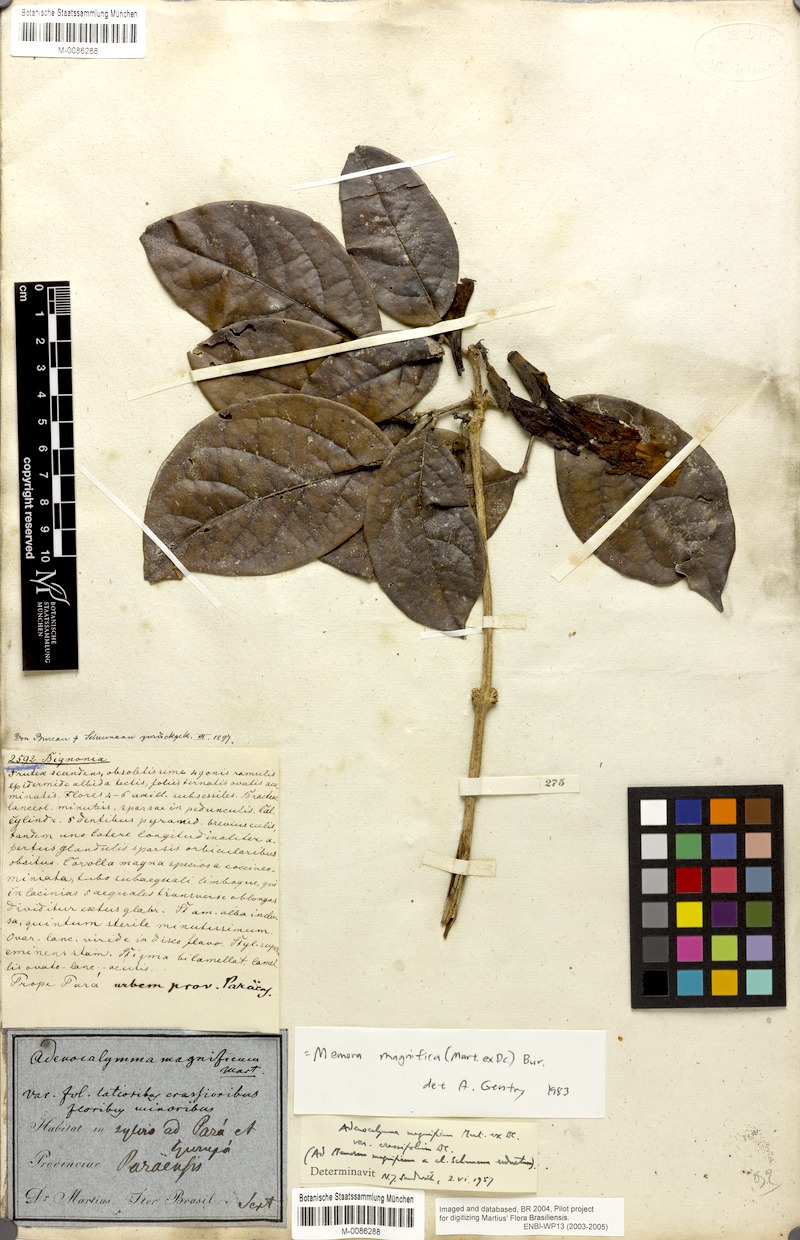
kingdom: Plantae
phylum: Tracheophyta
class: Magnoliopsida
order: Lamiales
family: Bignoniaceae
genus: Adenocalymma
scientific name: Adenocalymma magnificum
